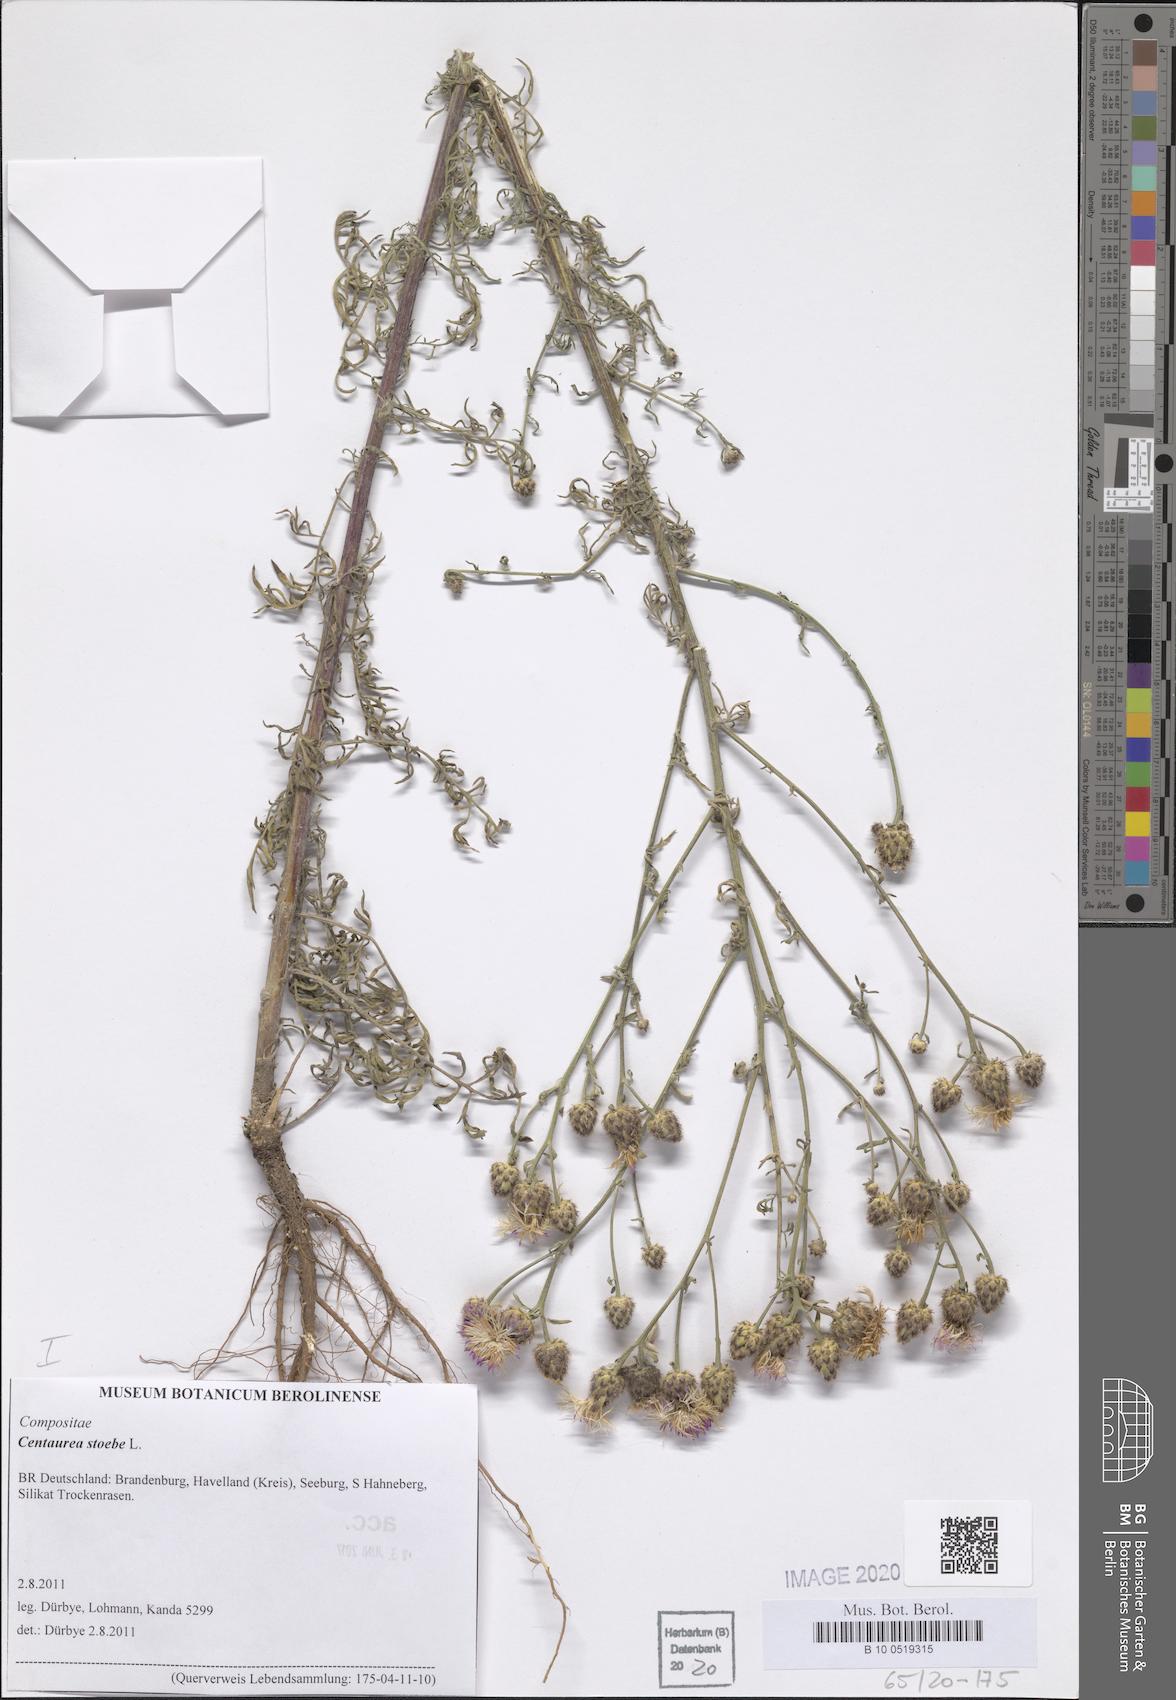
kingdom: Plantae
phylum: Tracheophyta
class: Magnoliopsida
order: Asterales
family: Asteraceae
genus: Centaurea
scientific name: Centaurea stoebe
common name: Spotted knapweed
